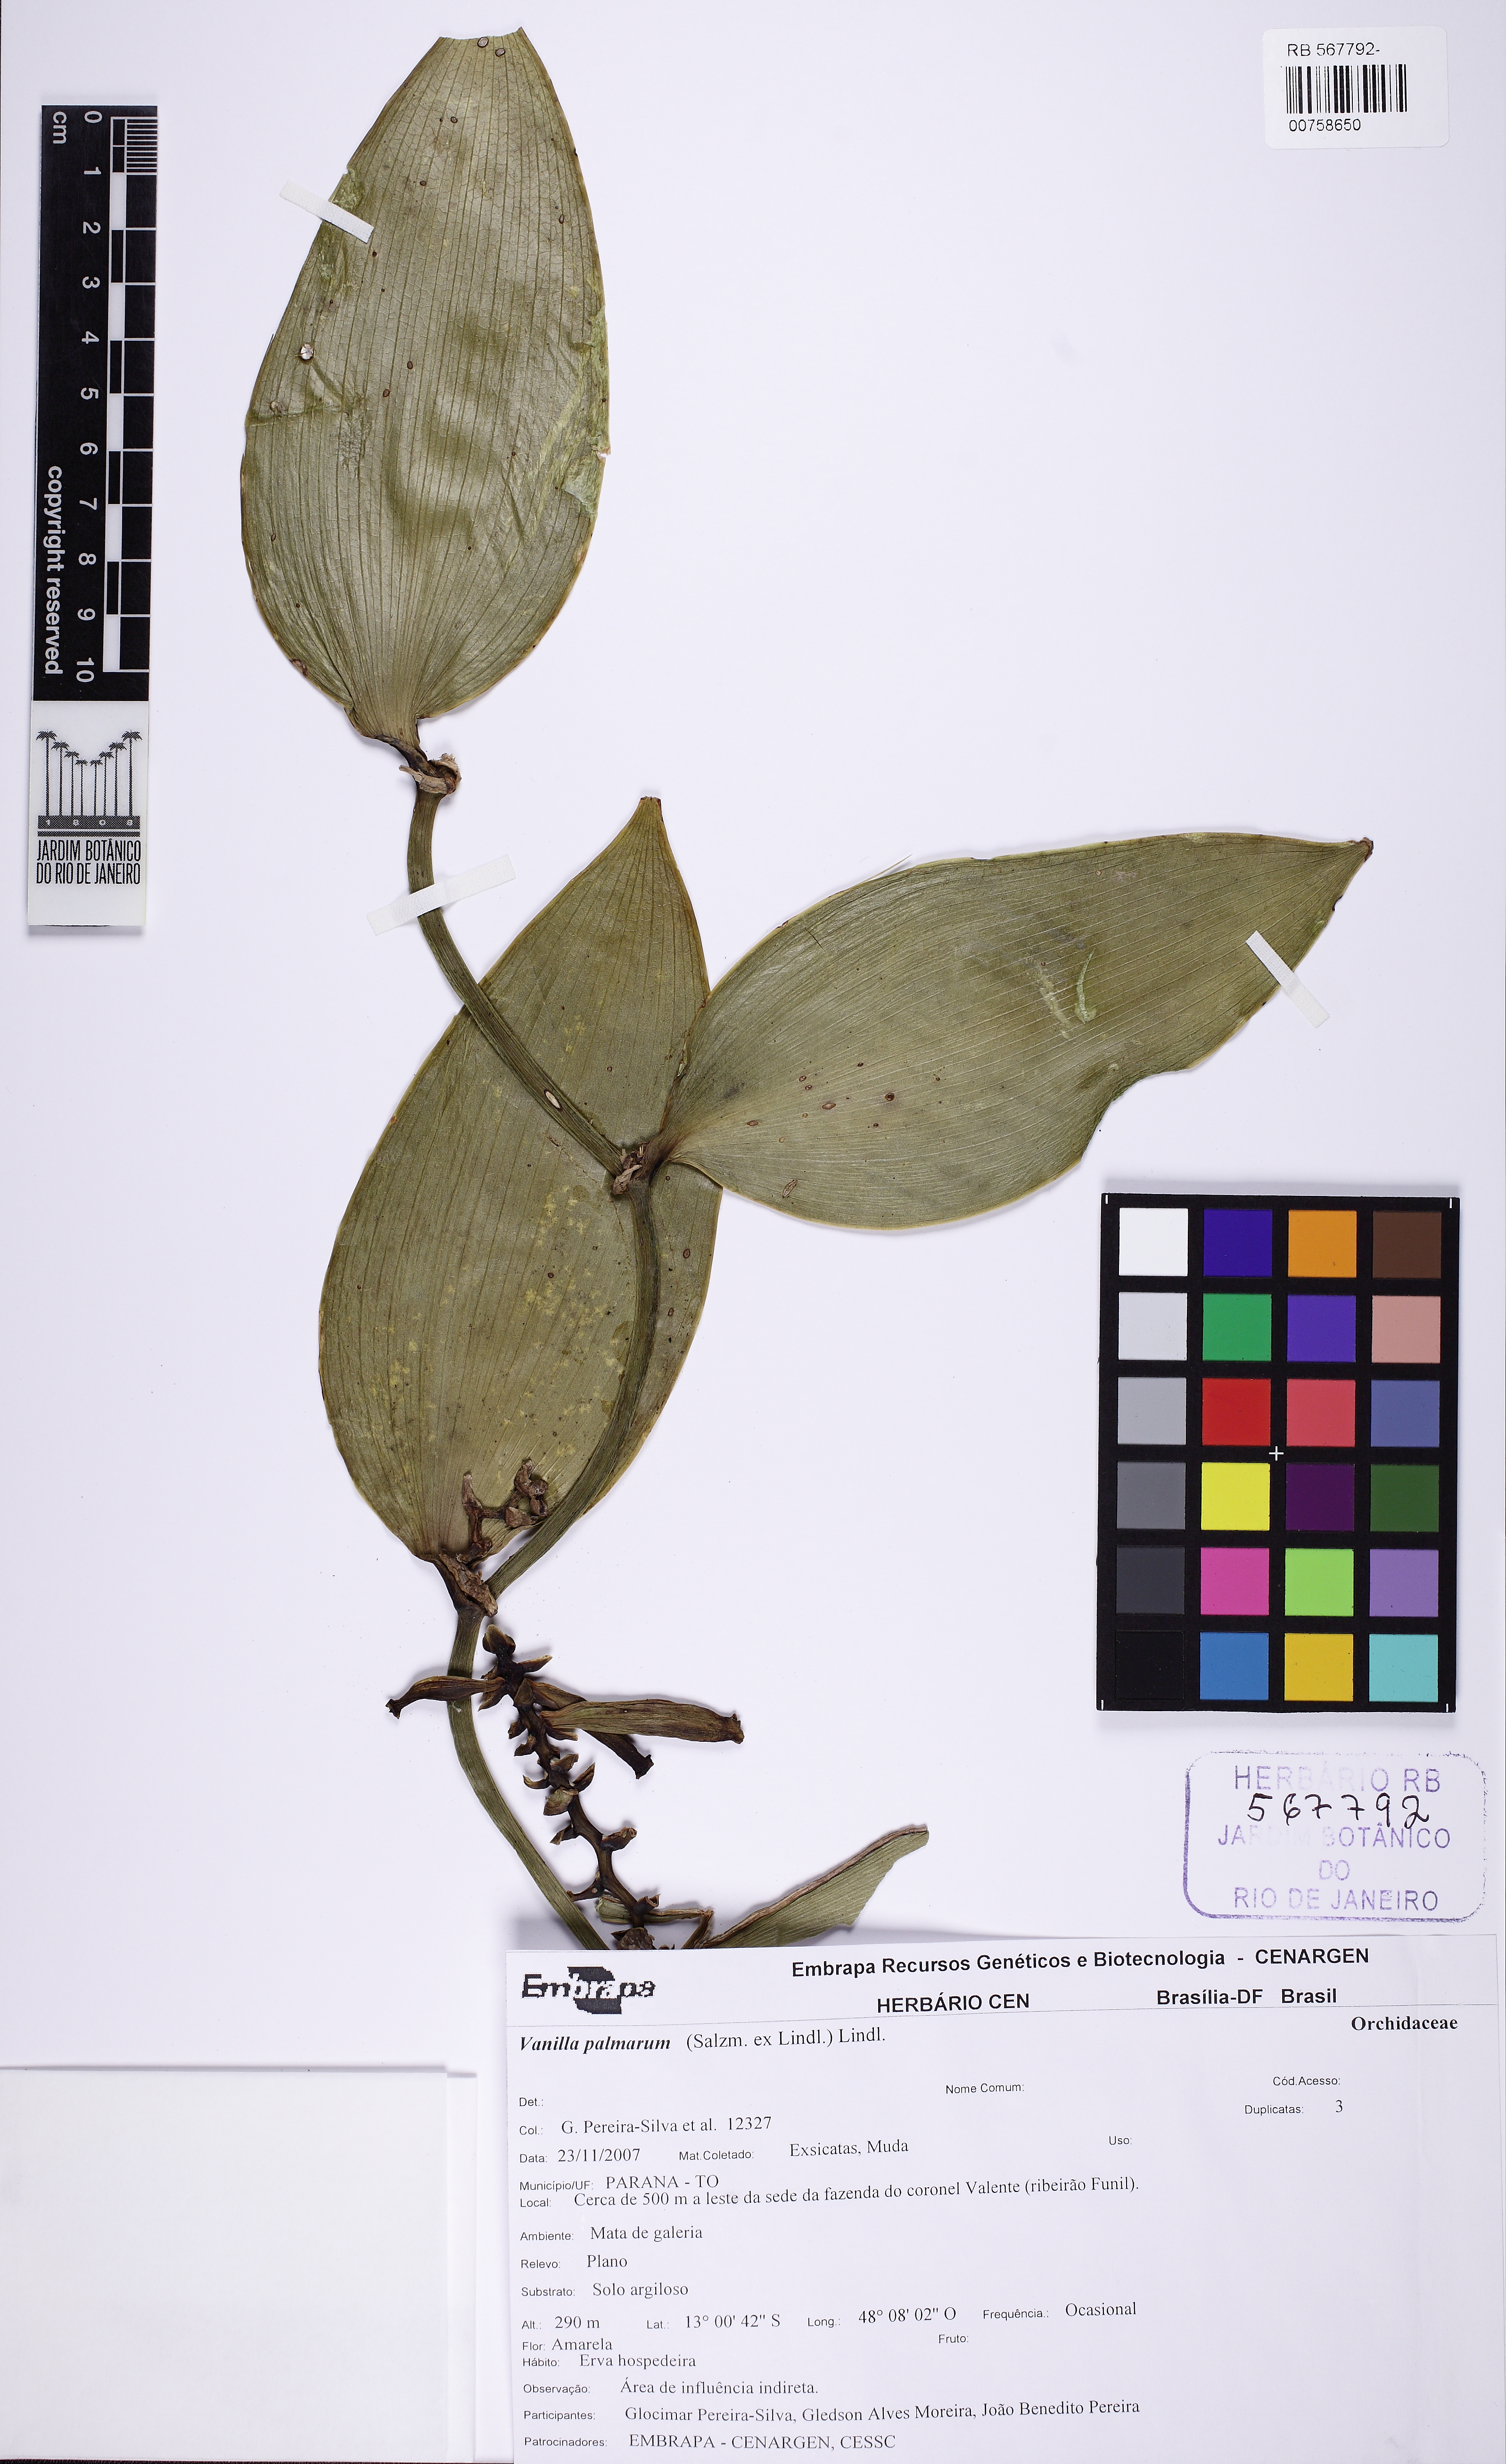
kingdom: Plantae
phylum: Tracheophyta
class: Liliopsida
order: Asparagales
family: Orchidaceae
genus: Vanilla
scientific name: Vanilla palmarum
